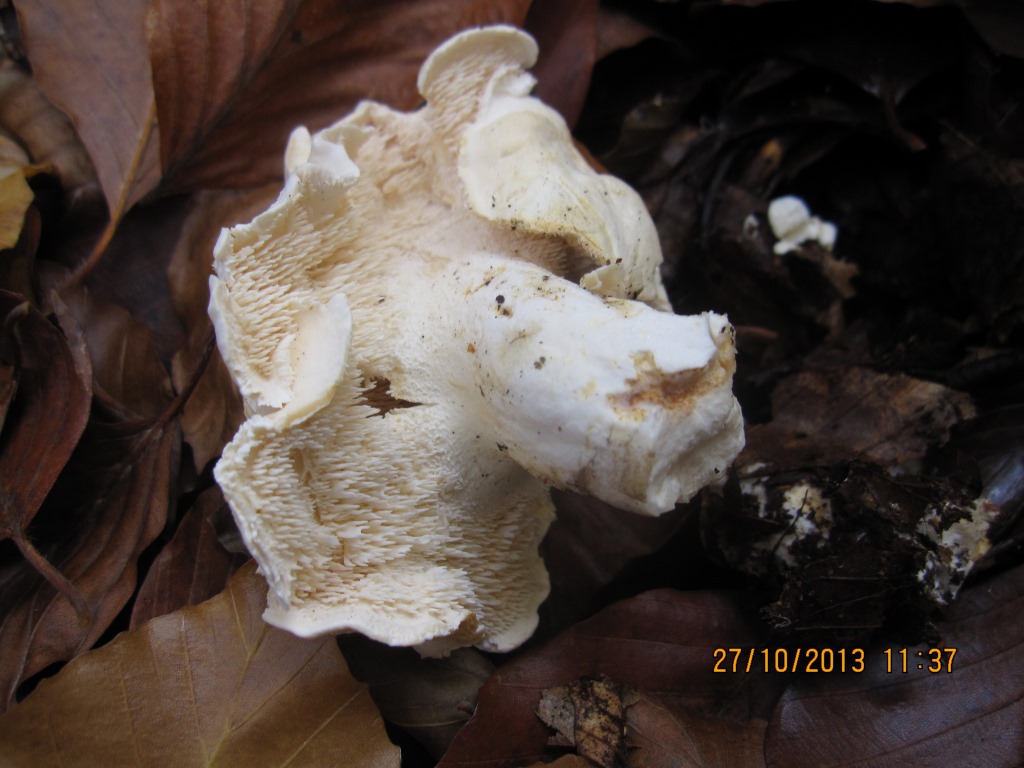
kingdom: Fungi
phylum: Basidiomycota
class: Agaricomycetes
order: Cantharellales
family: Hydnaceae
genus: Hydnum
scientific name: Hydnum repandum
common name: almindelig pigsvamp
